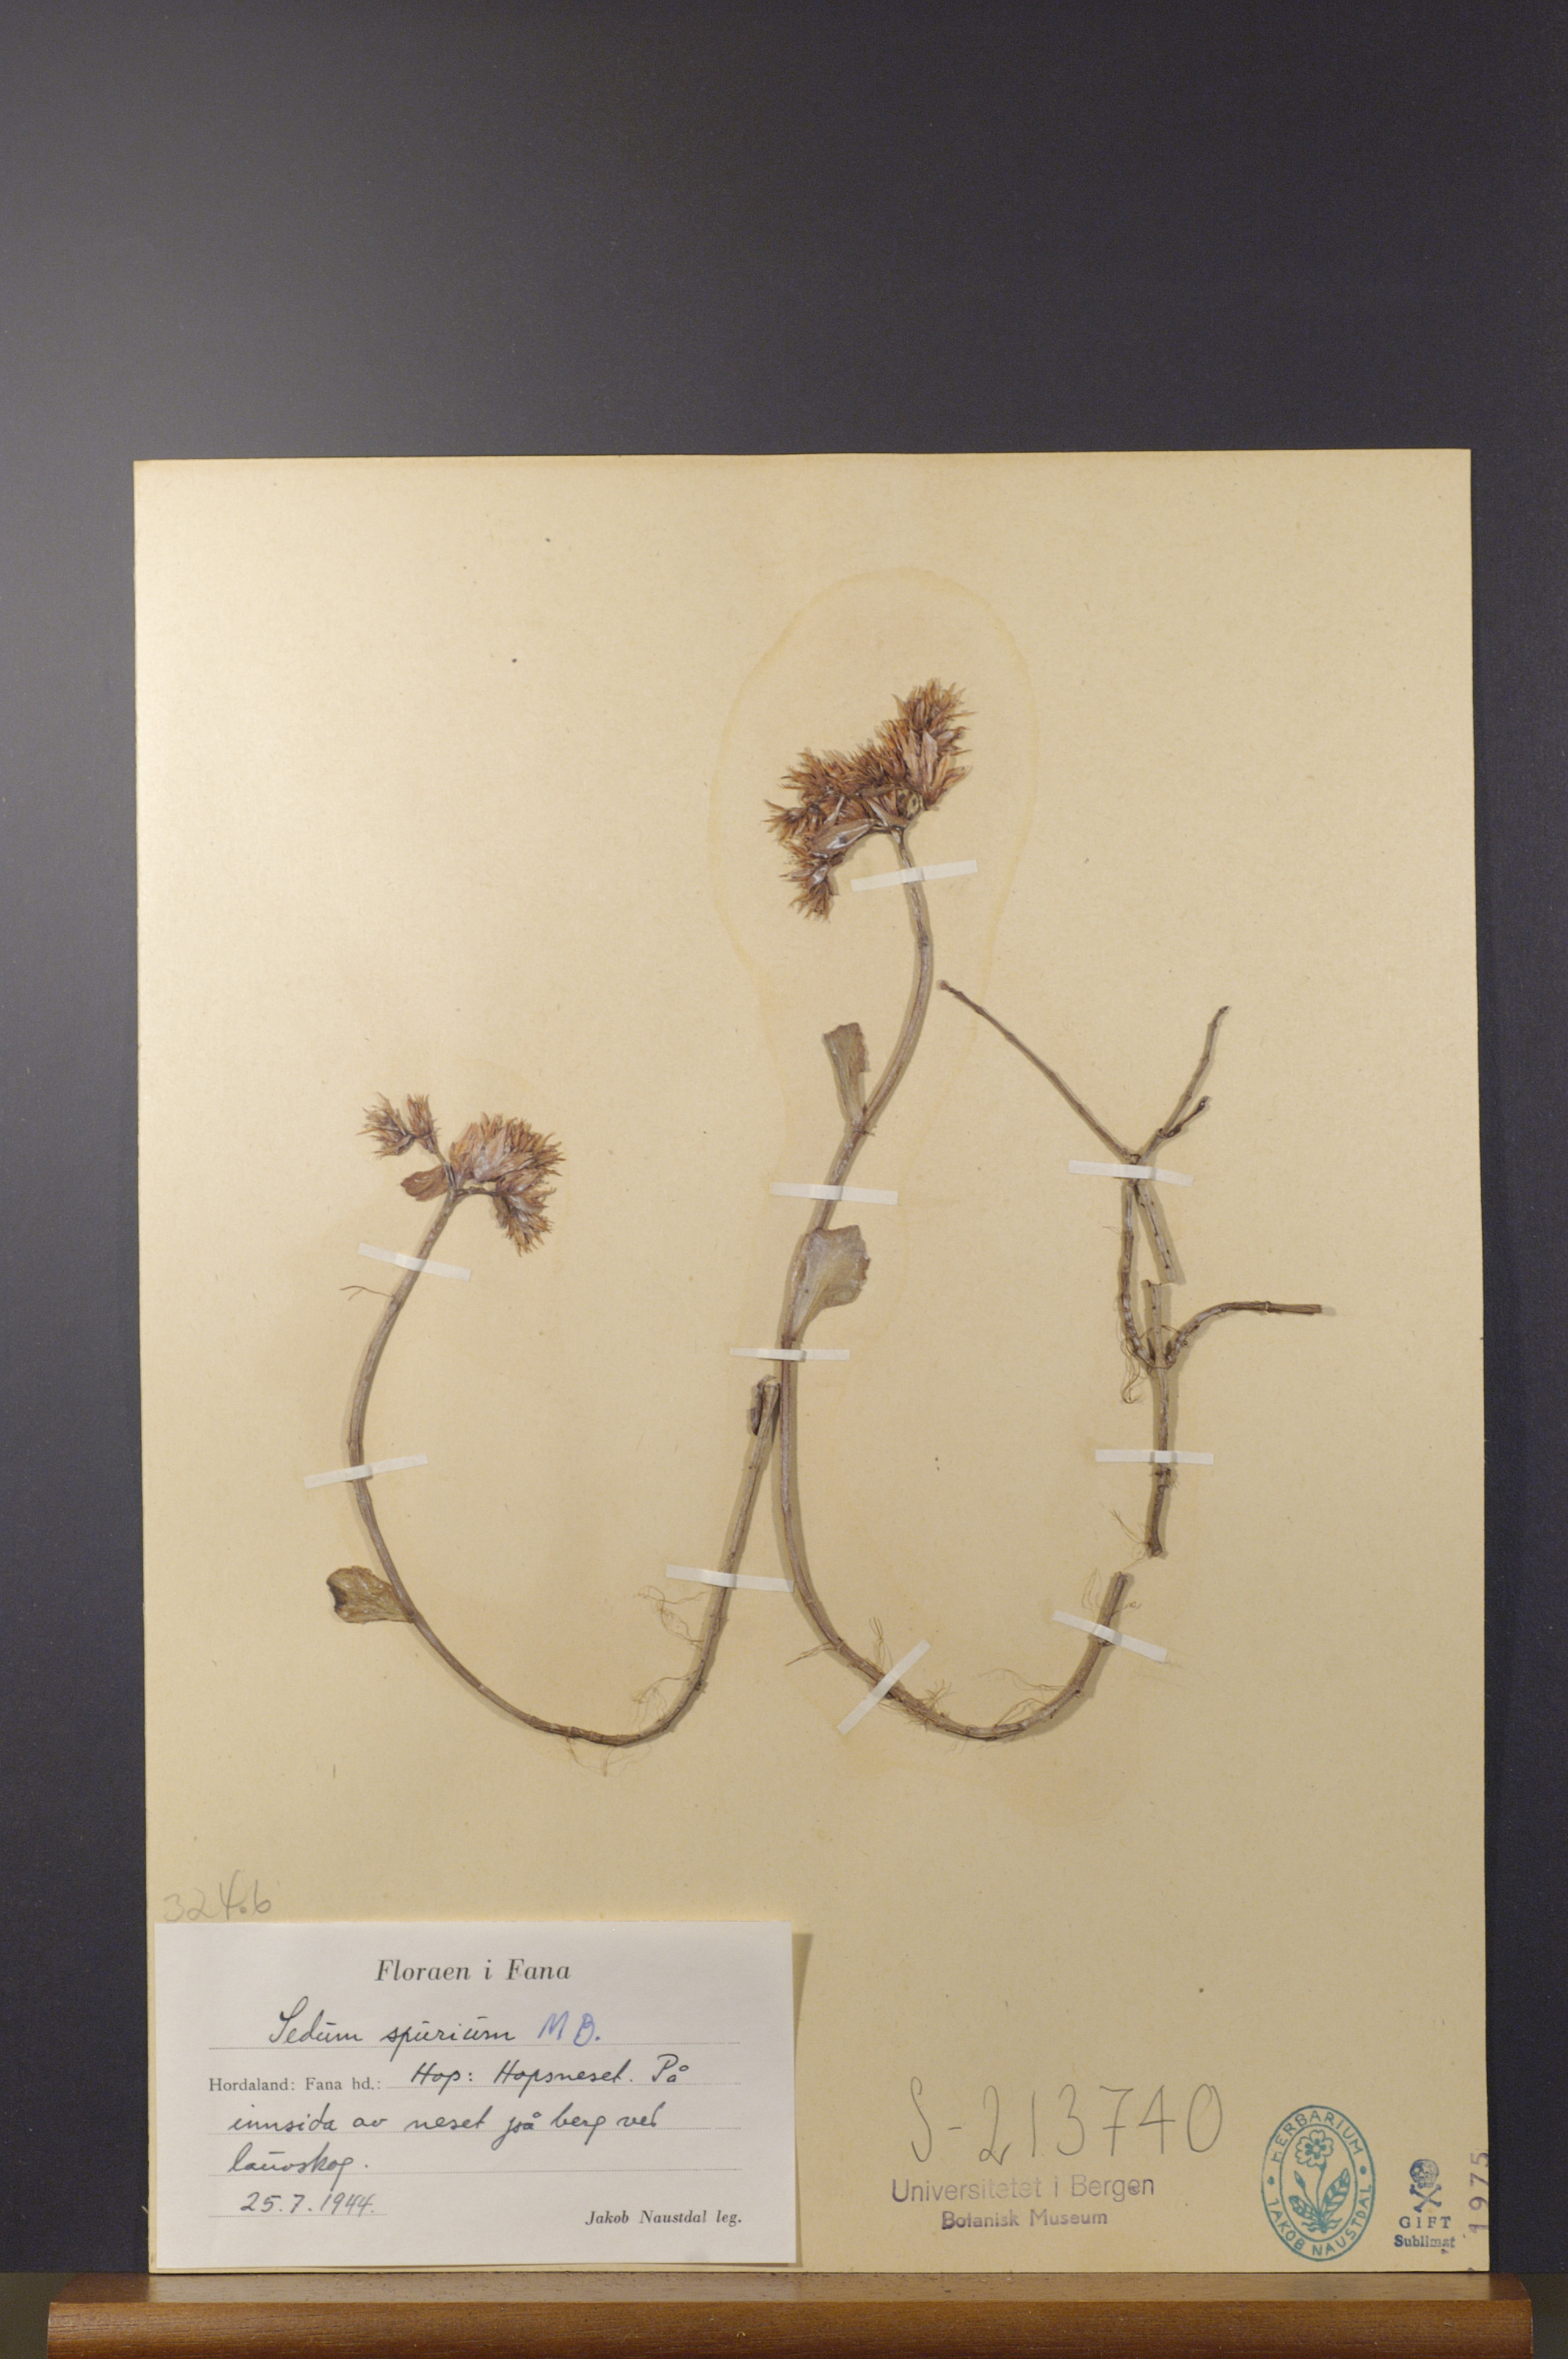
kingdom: Plantae
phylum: Tracheophyta
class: Magnoliopsida
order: Saxifragales
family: Crassulaceae
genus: Phedimus
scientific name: Phedimus spurius
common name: Caucasian stonecrop
